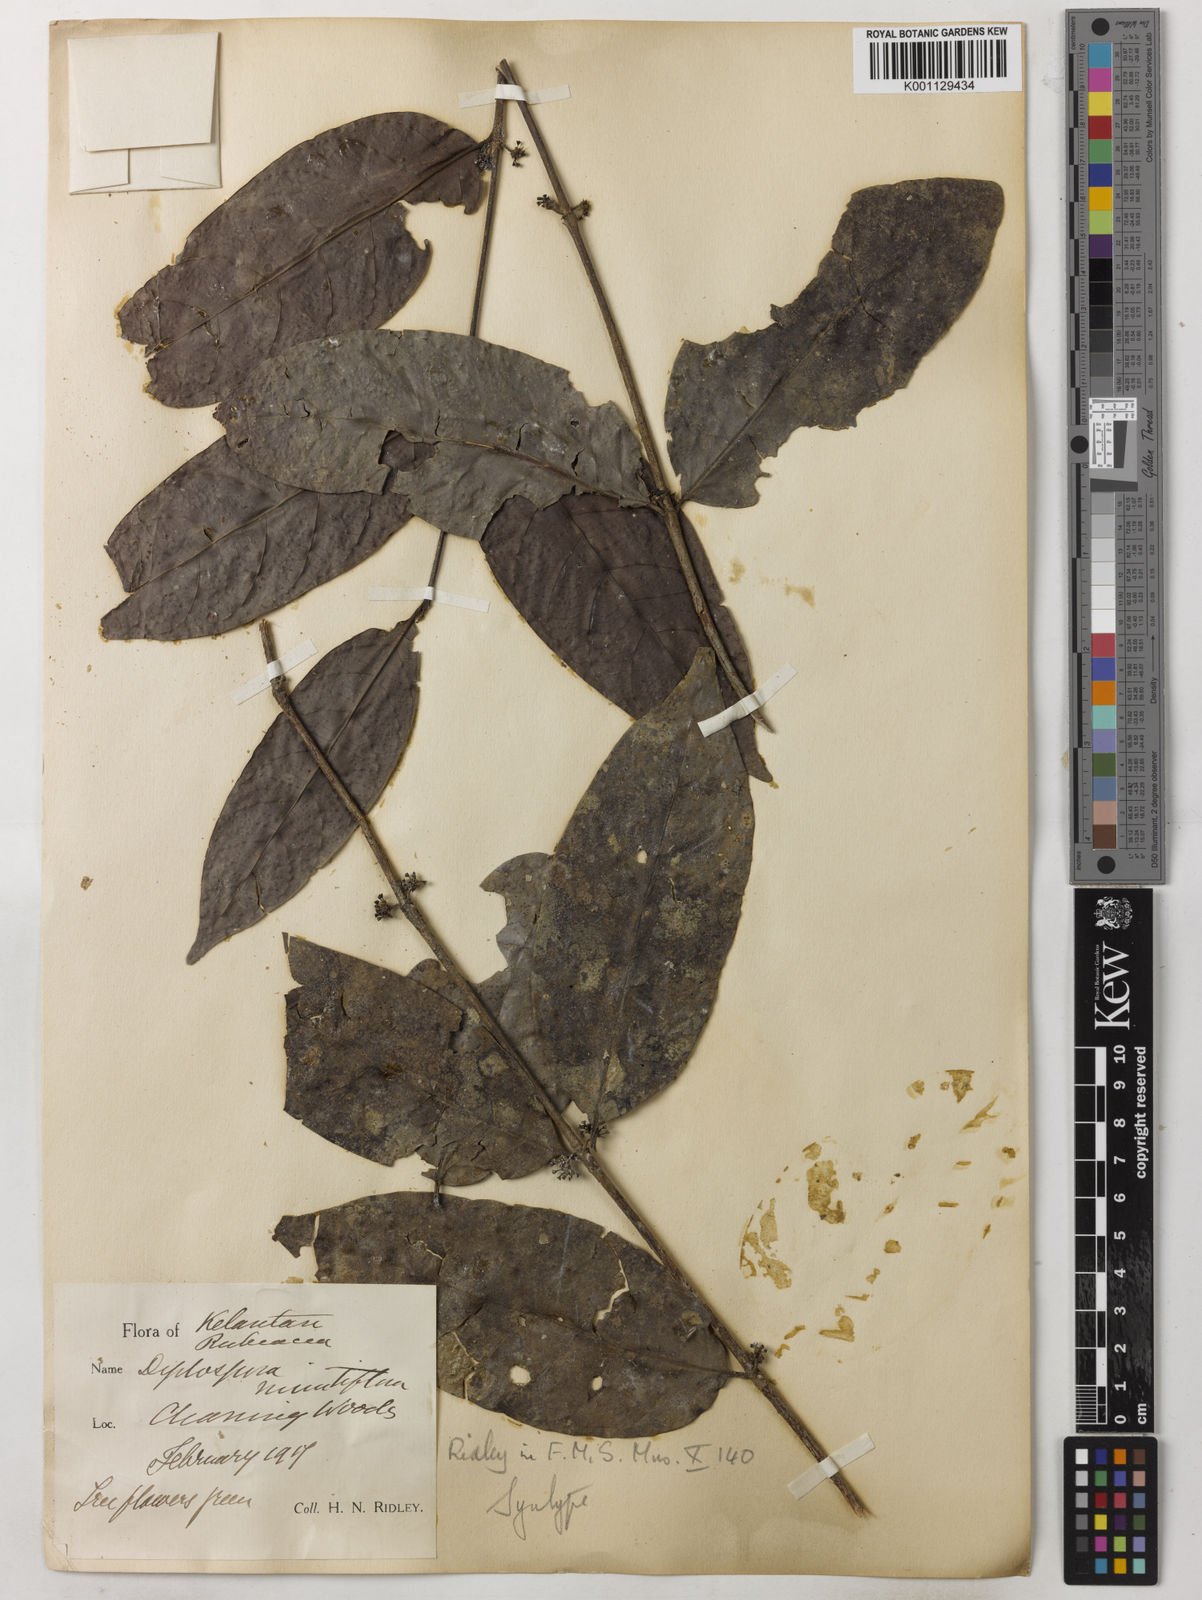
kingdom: Plantae
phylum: Tracheophyta
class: Magnoliopsida
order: Gentianales
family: Rubiaceae
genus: Hypobathrum
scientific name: Hypobathrum
